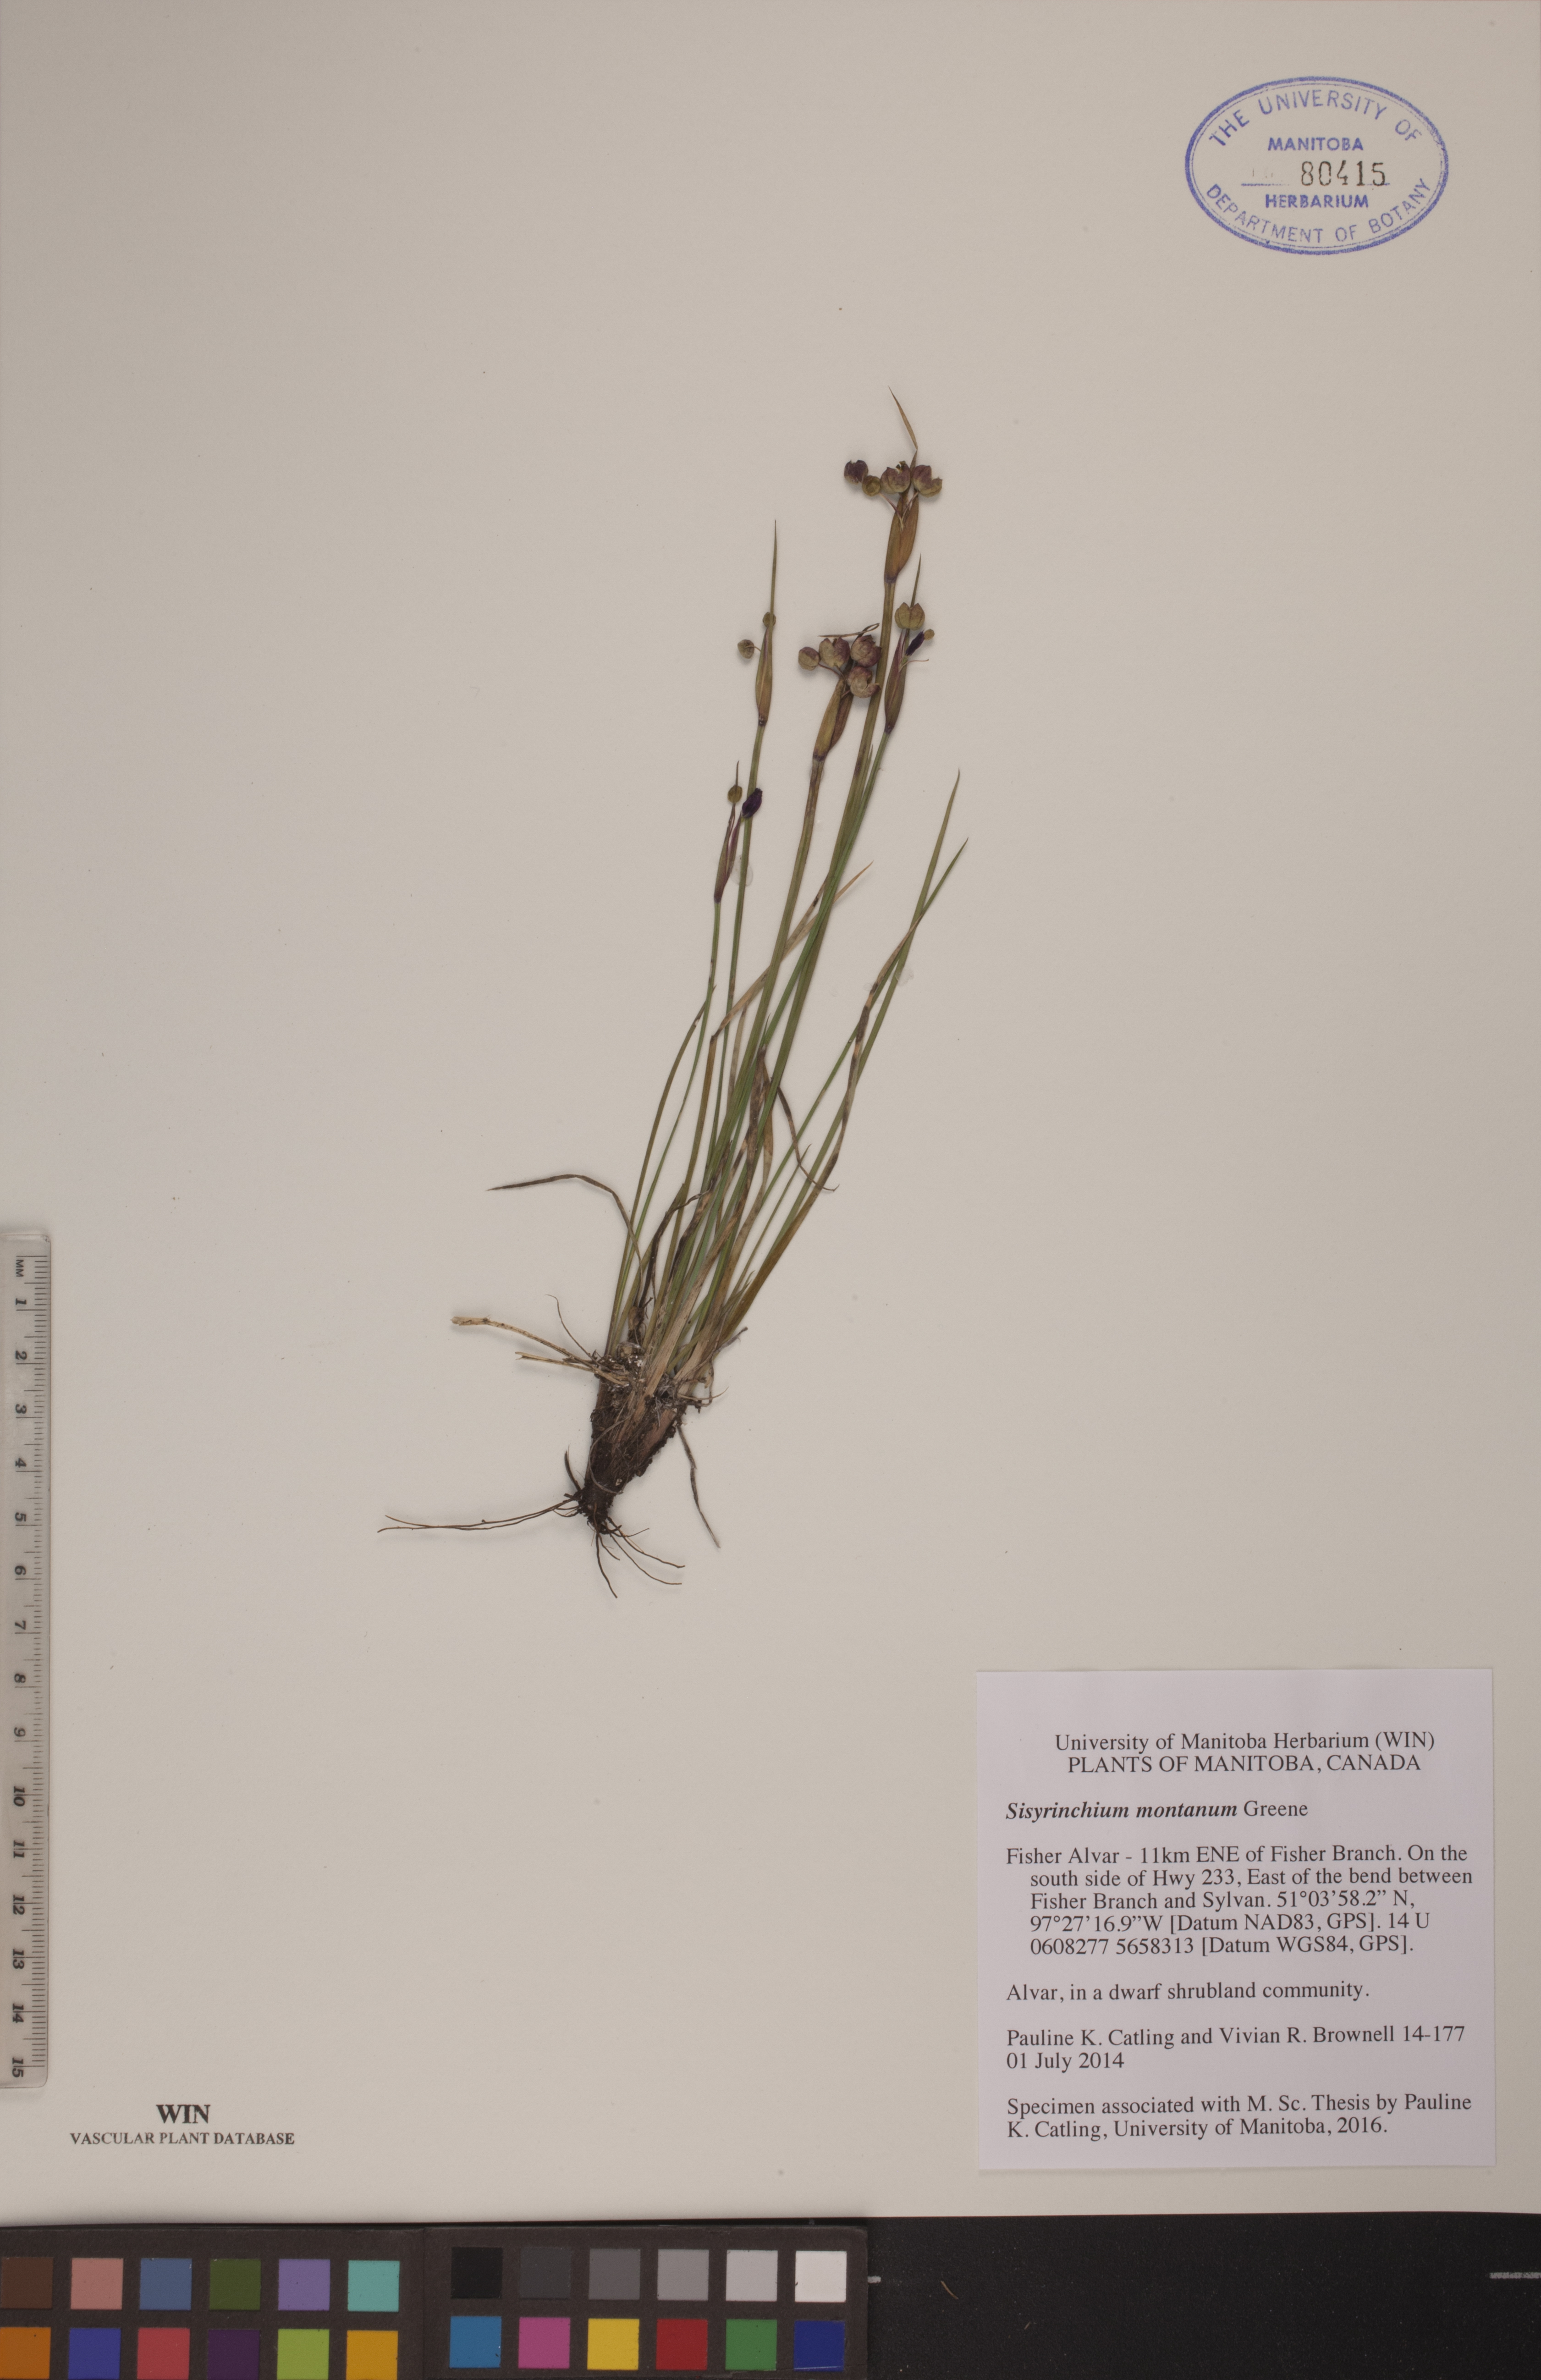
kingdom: Plantae
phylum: Tracheophyta
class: Liliopsida
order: Asparagales
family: Iridaceae
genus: Sisyrinchium
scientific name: Sisyrinchium montanum
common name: American blue-eyed-grass
